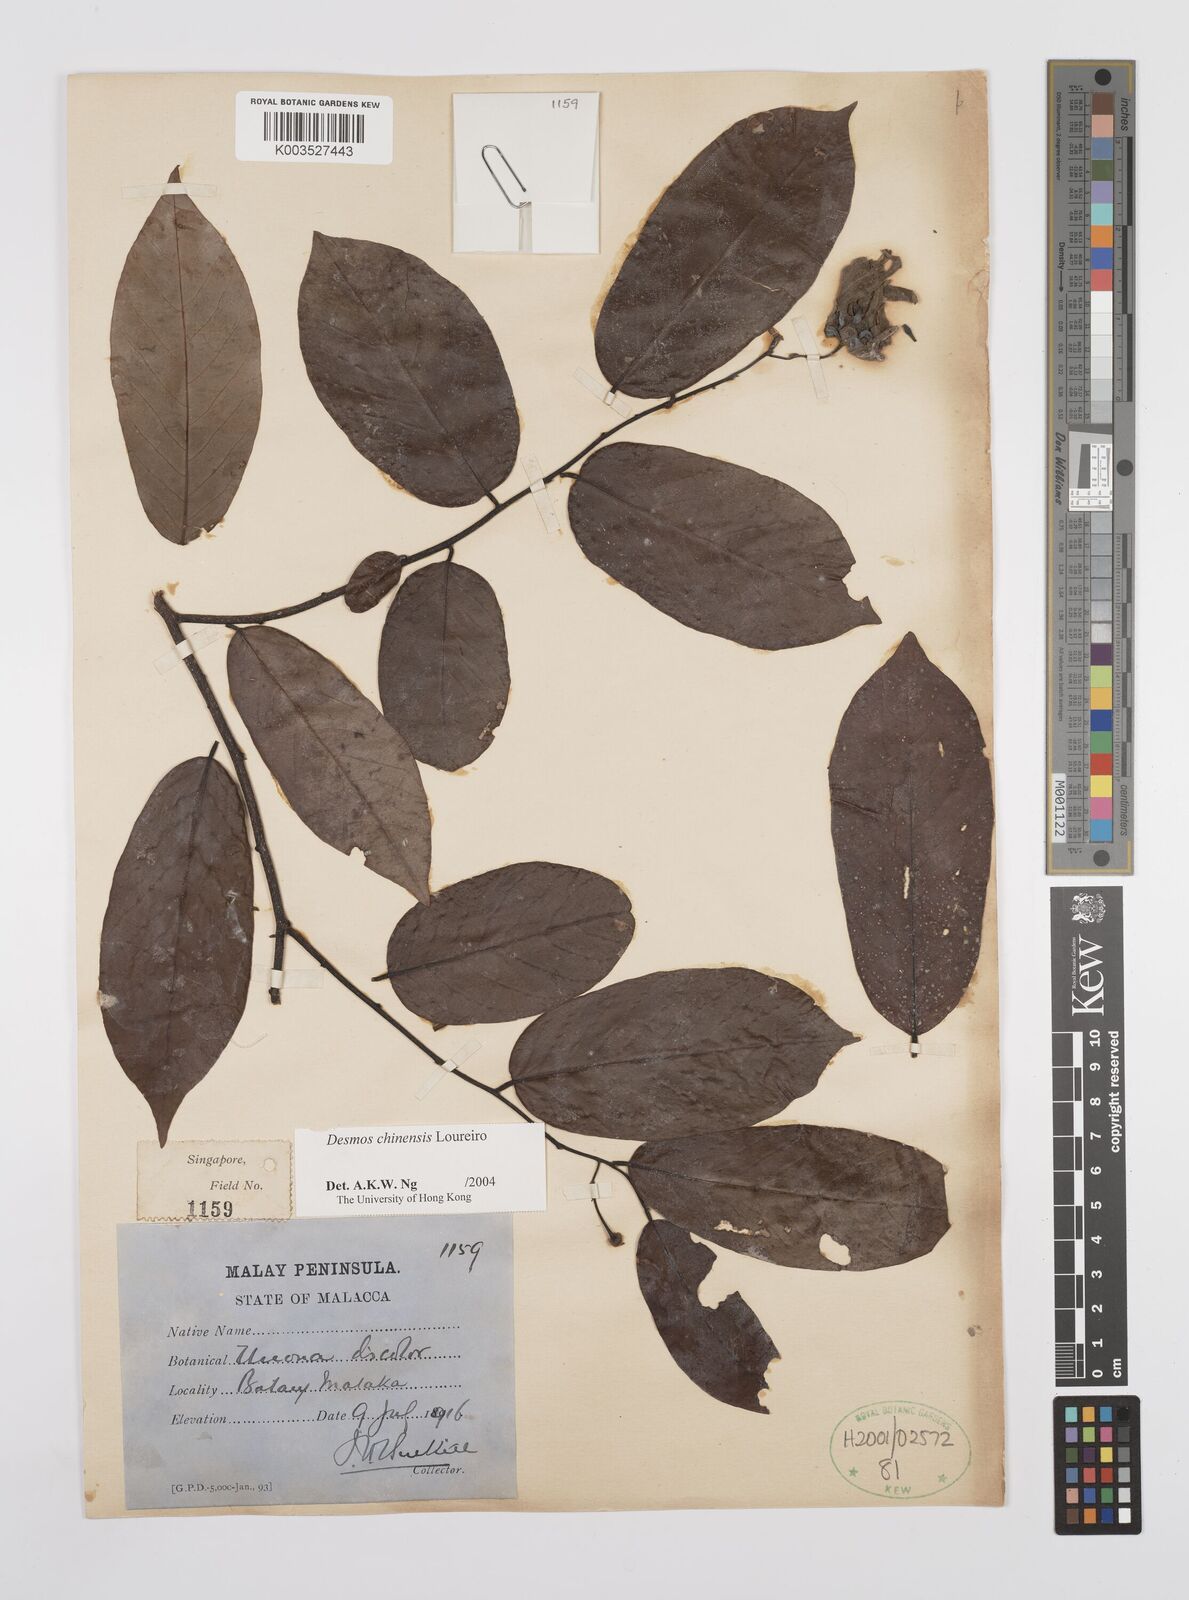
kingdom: Plantae
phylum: Tracheophyta
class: Magnoliopsida
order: Magnoliales
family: Annonaceae
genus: Desmos
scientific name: Desmos chinensis
